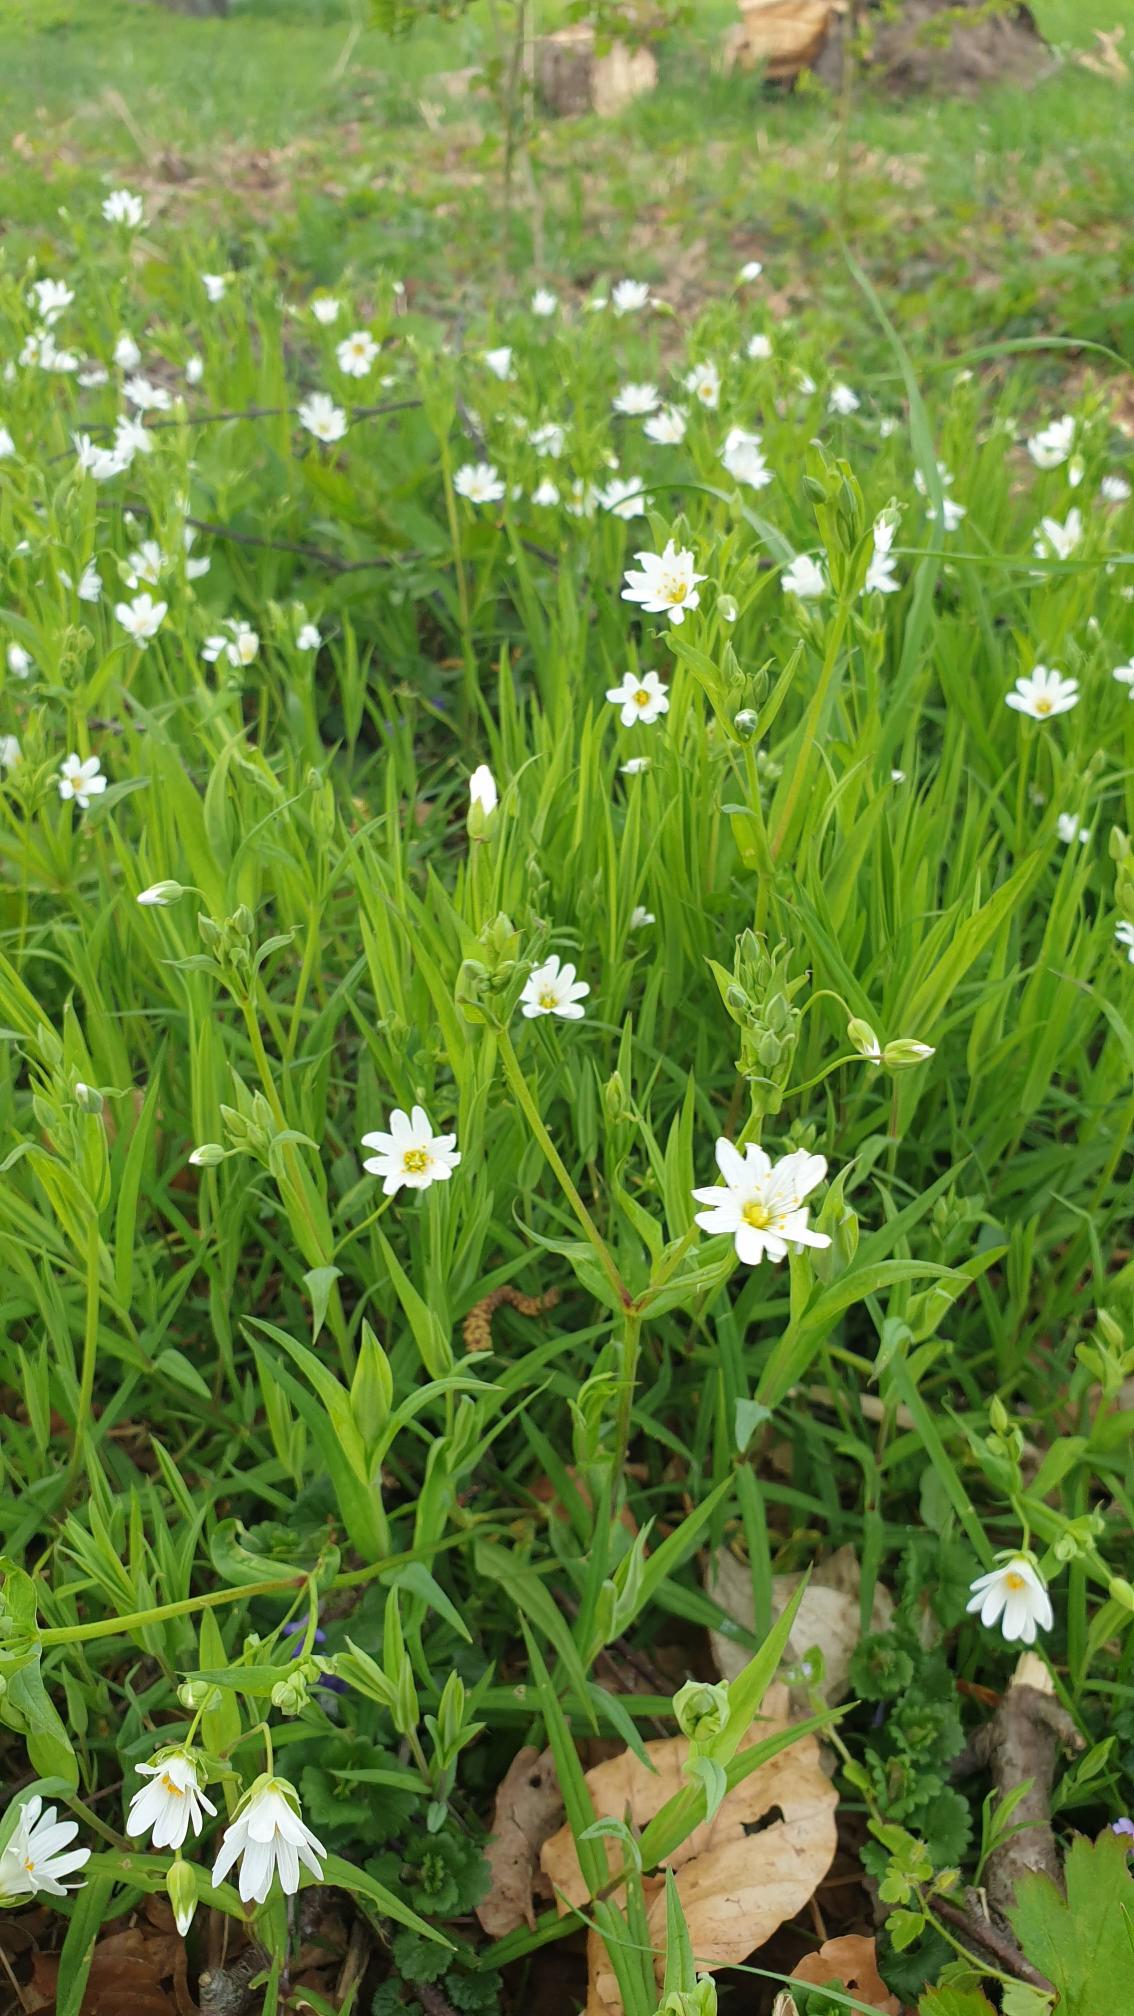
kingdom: Plantae
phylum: Tracheophyta
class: Magnoliopsida
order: Caryophyllales
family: Caryophyllaceae
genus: Rabelera
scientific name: Rabelera holostea
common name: Stor fladstjerne
